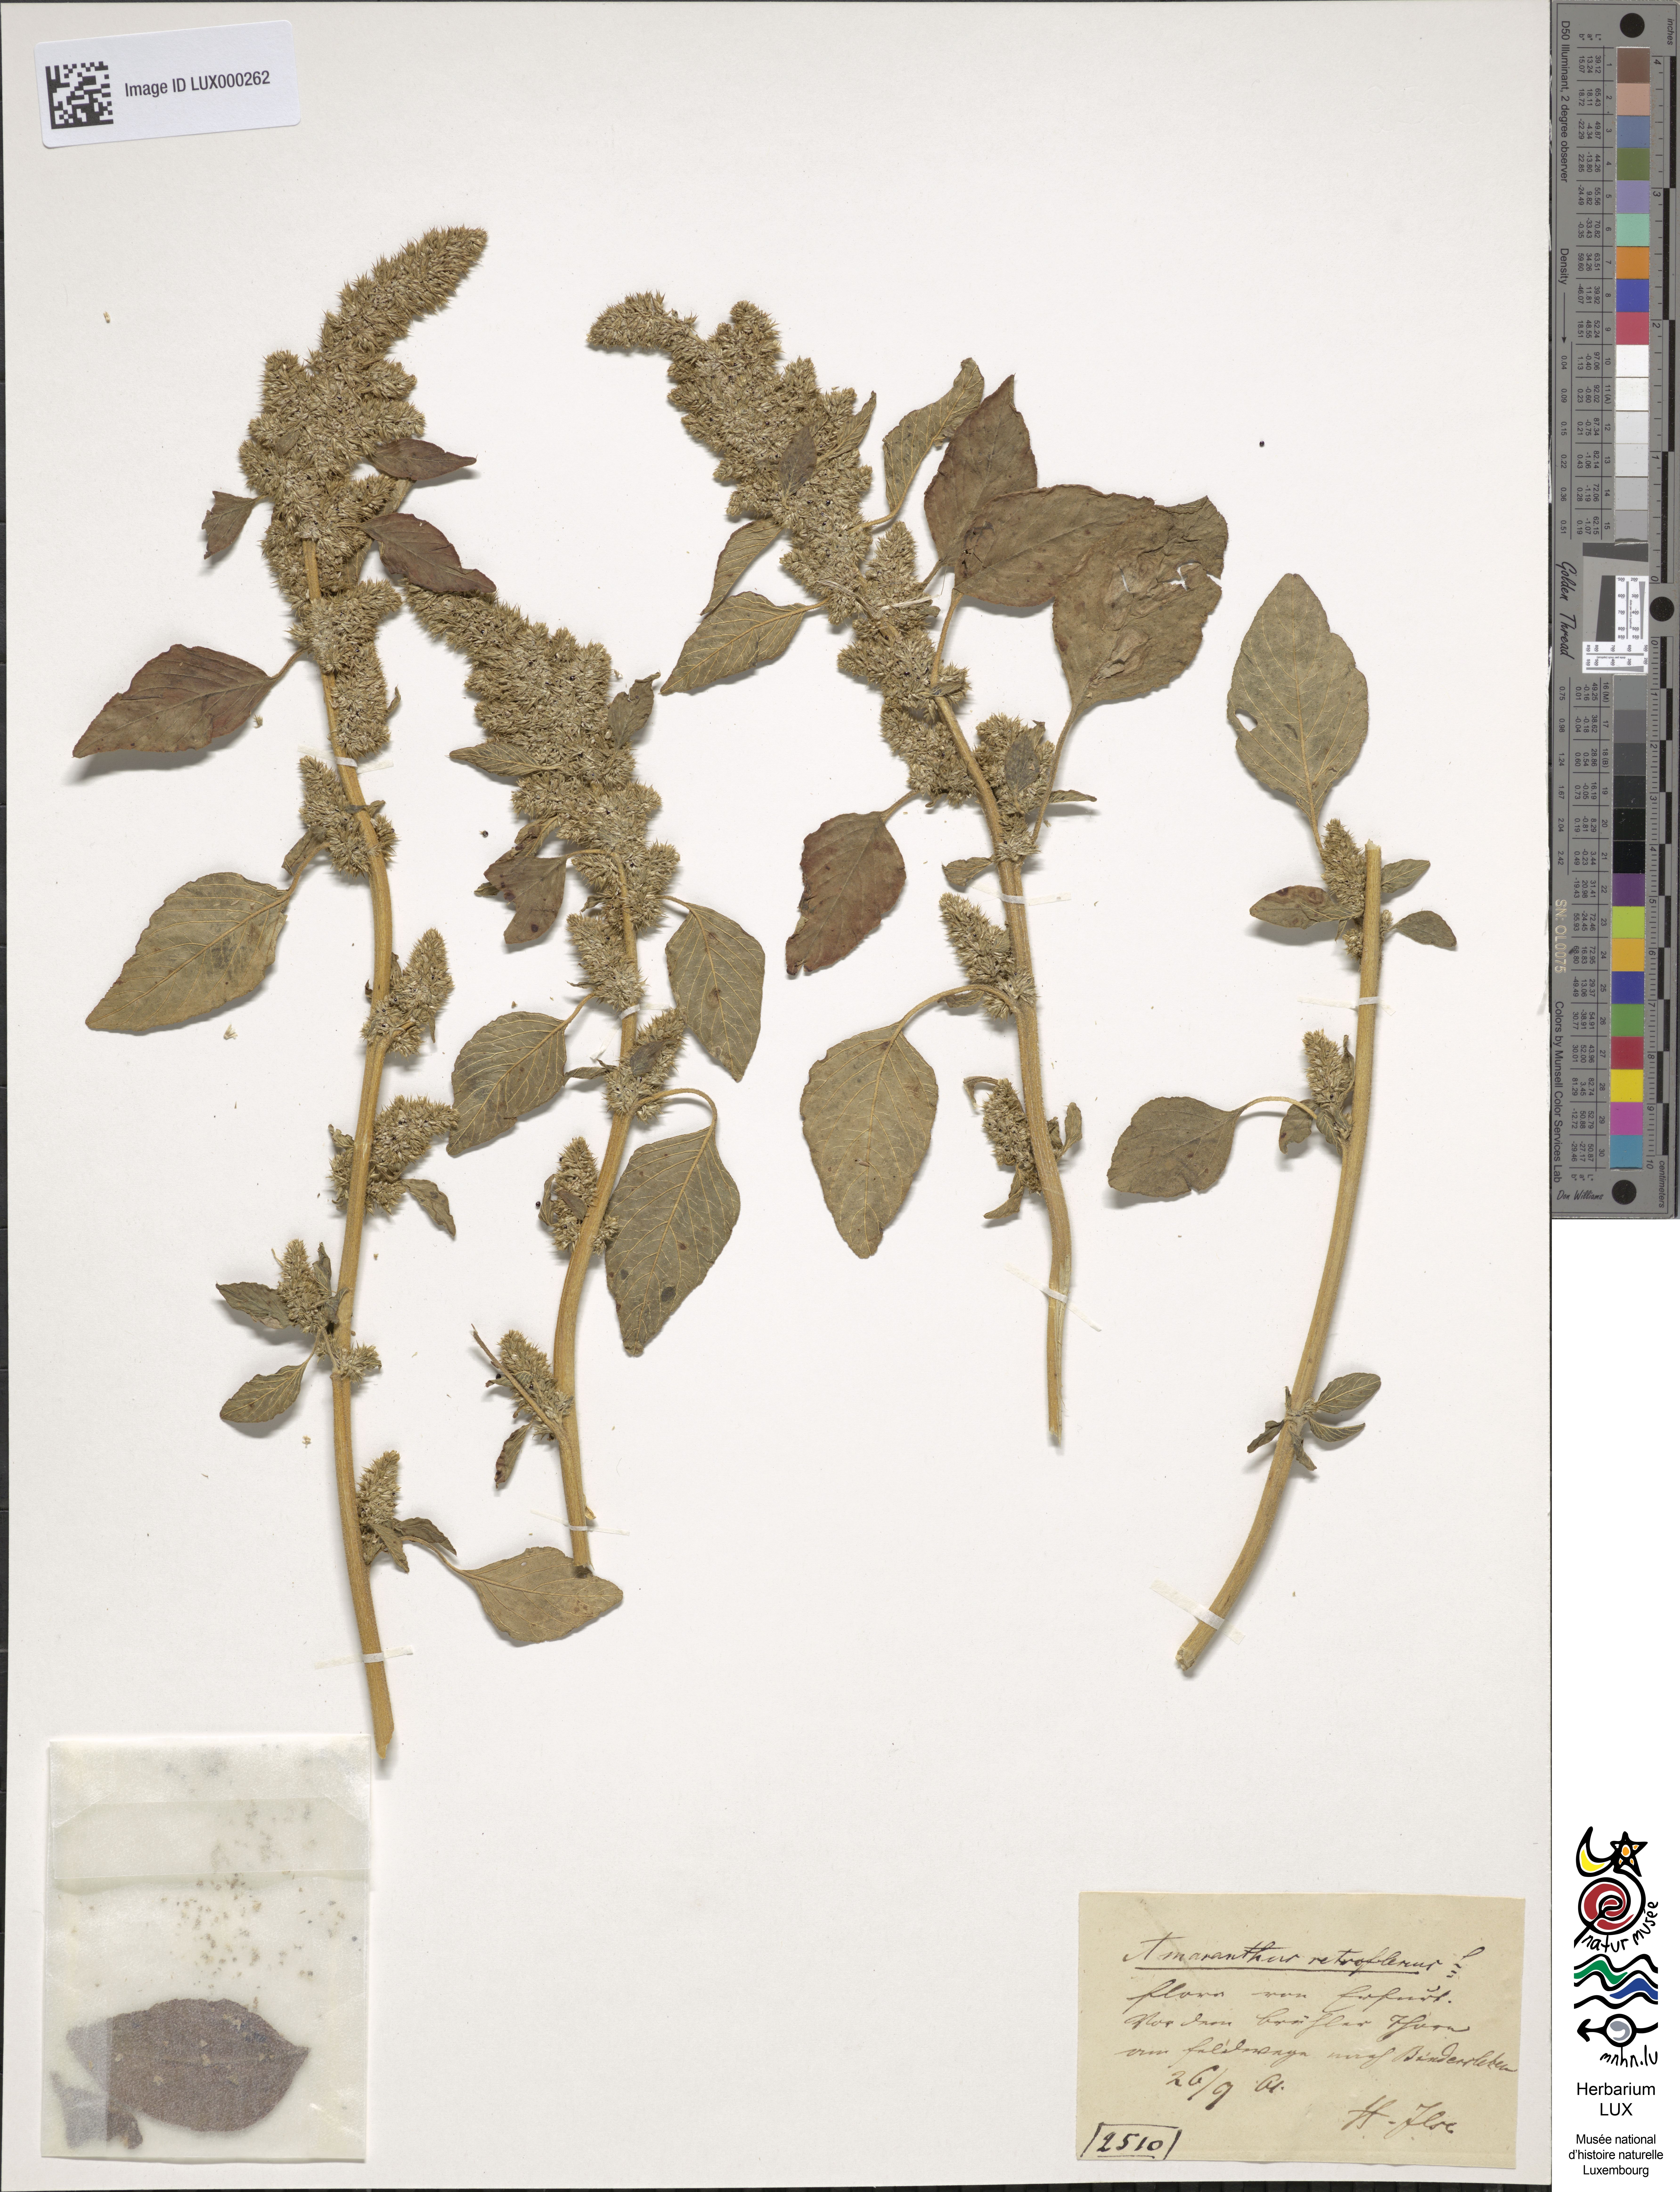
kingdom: Plantae
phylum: Tracheophyta
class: Magnoliopsida
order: Caryophyllales
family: Amaranthaceae
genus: Amaranthus
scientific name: Amaranthus retroflexus
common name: Redroot amaranth
